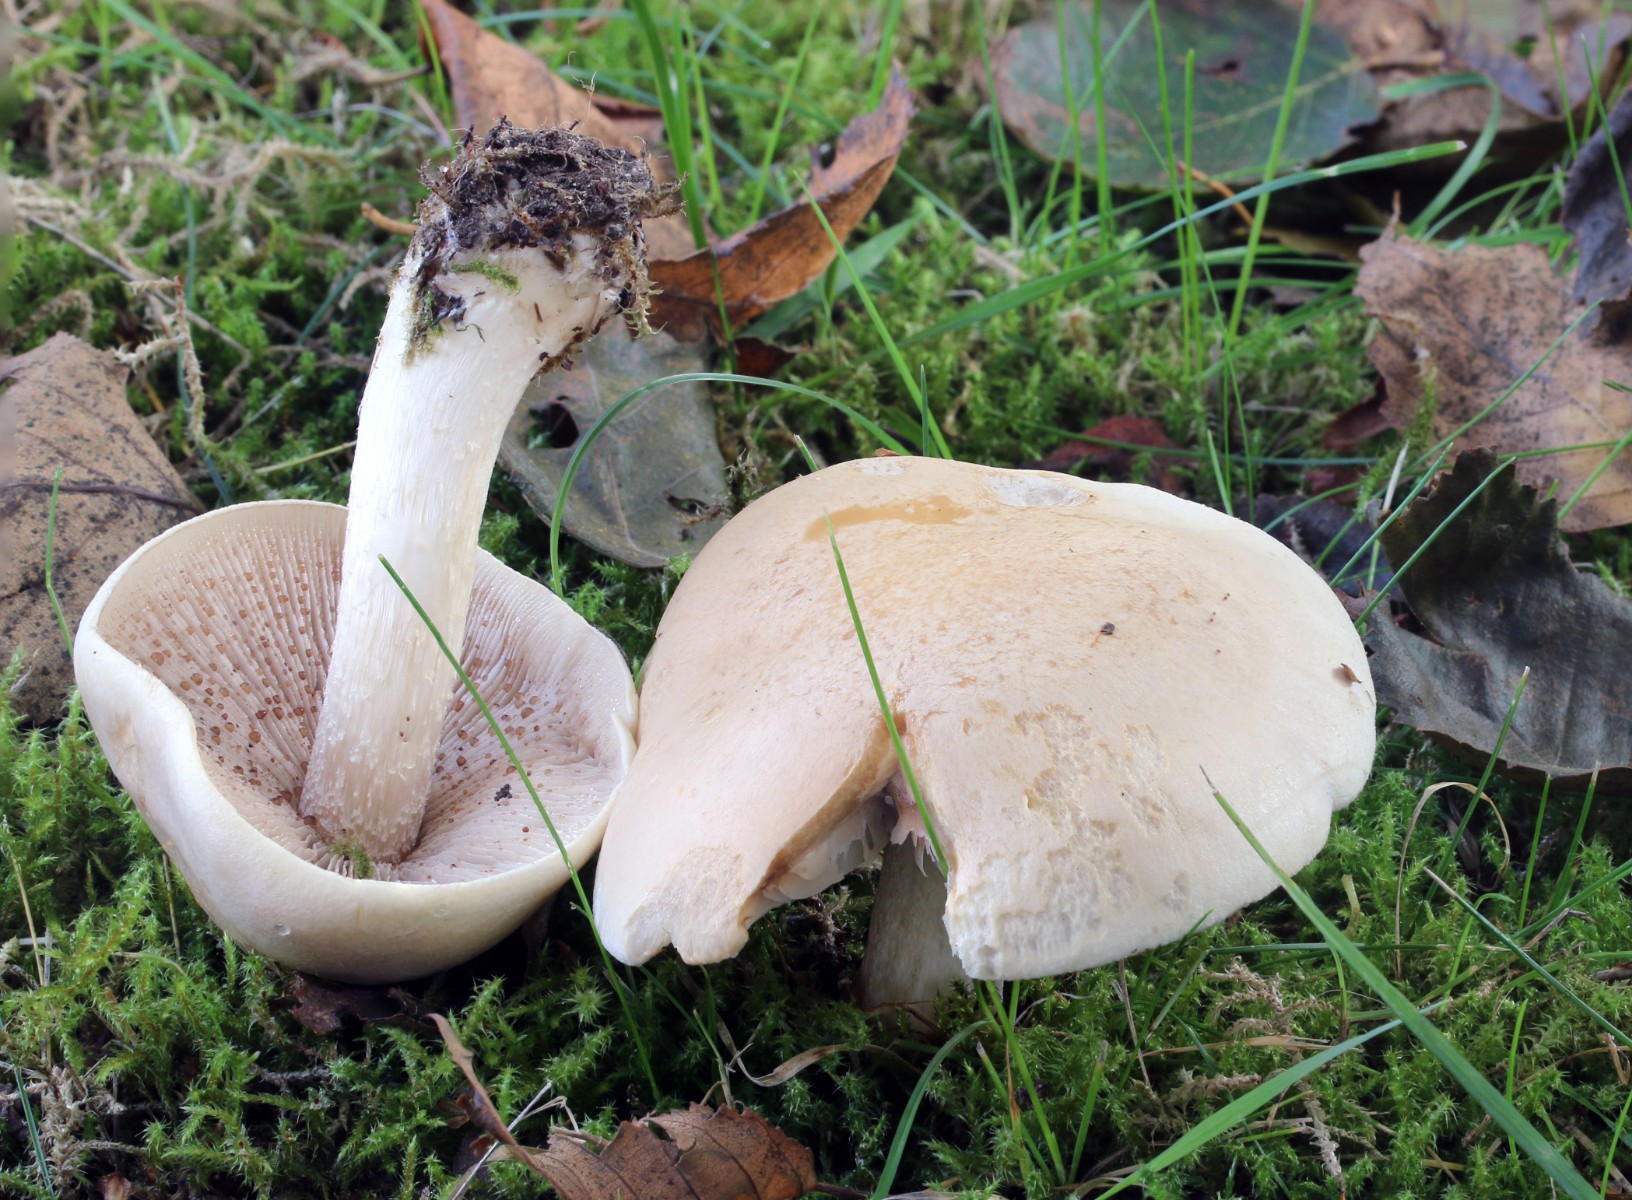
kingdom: Fungi
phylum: Basidiomycota
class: Agaricomycetes
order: Agaricales
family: Hymenogastraceae
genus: Hebeloma
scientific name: Hebeloma crustuliniforme
